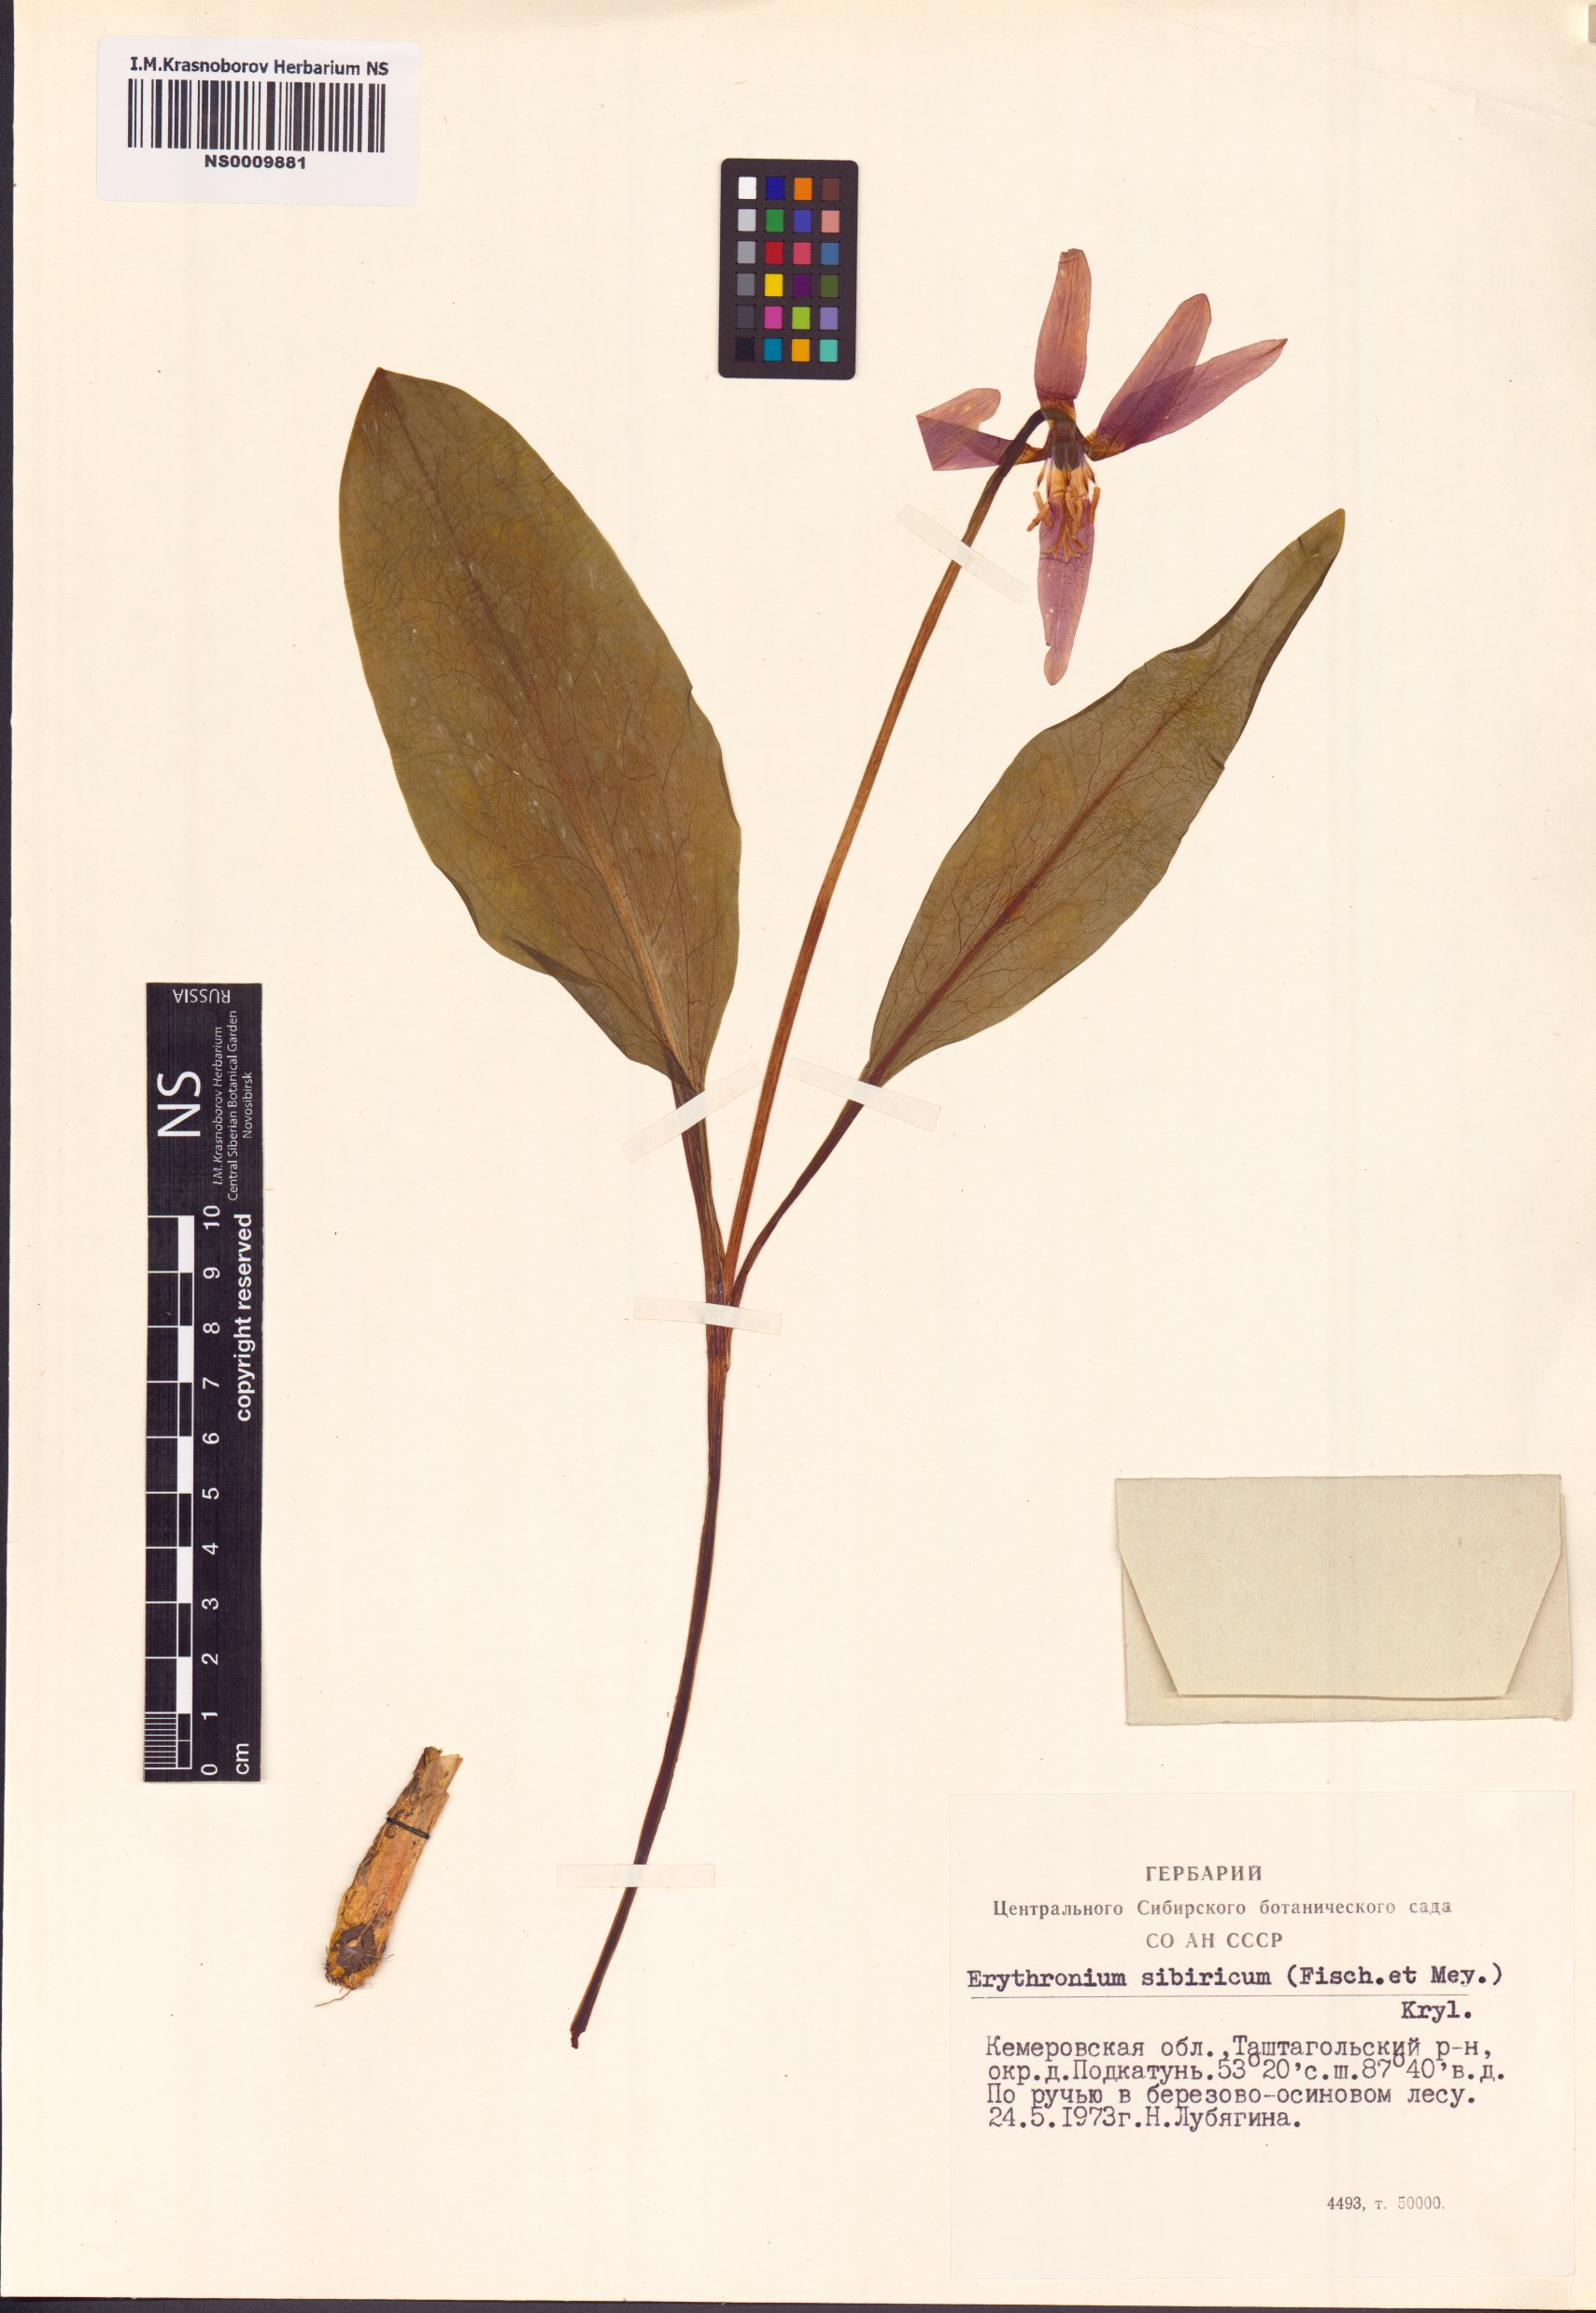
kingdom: Plantae
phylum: Tracheophyta
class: Liliopsida
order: Liliales
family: Liliaceae
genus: Erythronium
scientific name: Erythronium sibiricum
